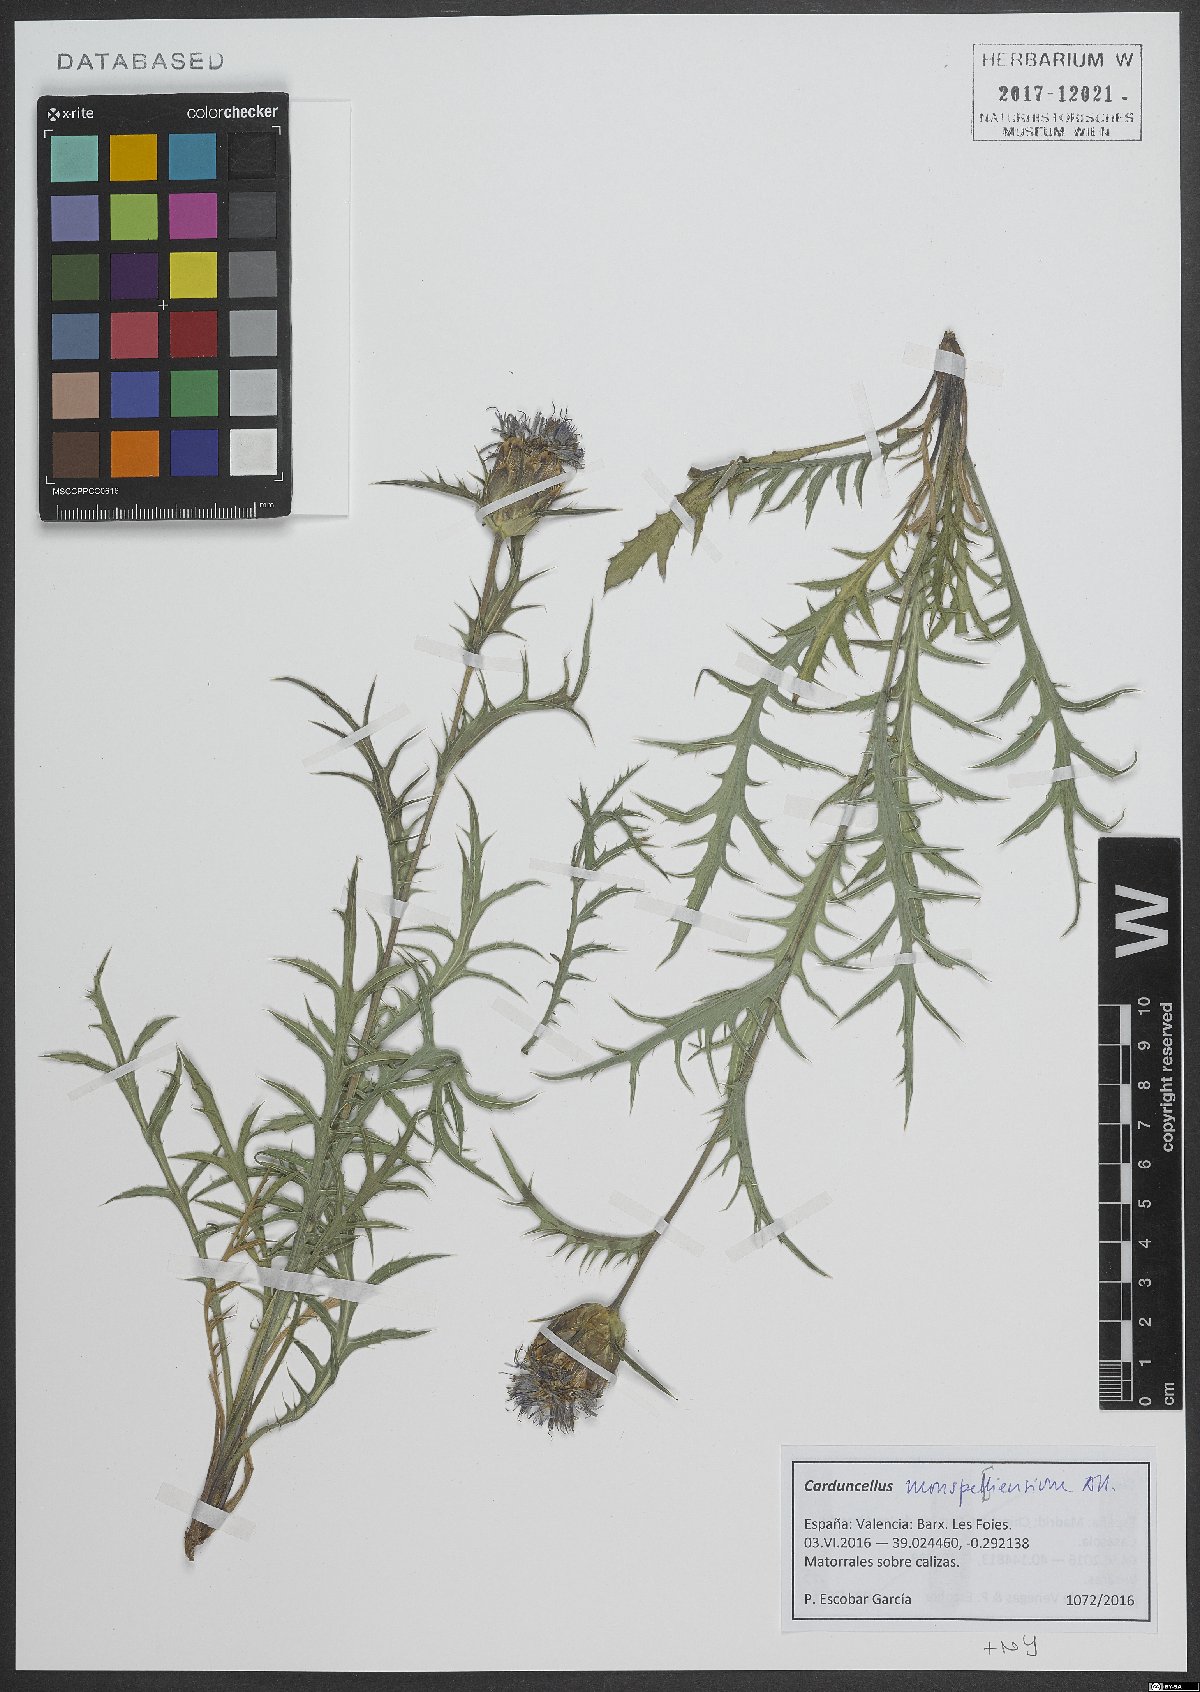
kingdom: Plantae
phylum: Tracheophyta
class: Magnoliopsida
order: Asterales
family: Asteraceae
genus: Carduncellus
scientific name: Carduncellus monspelliensium
